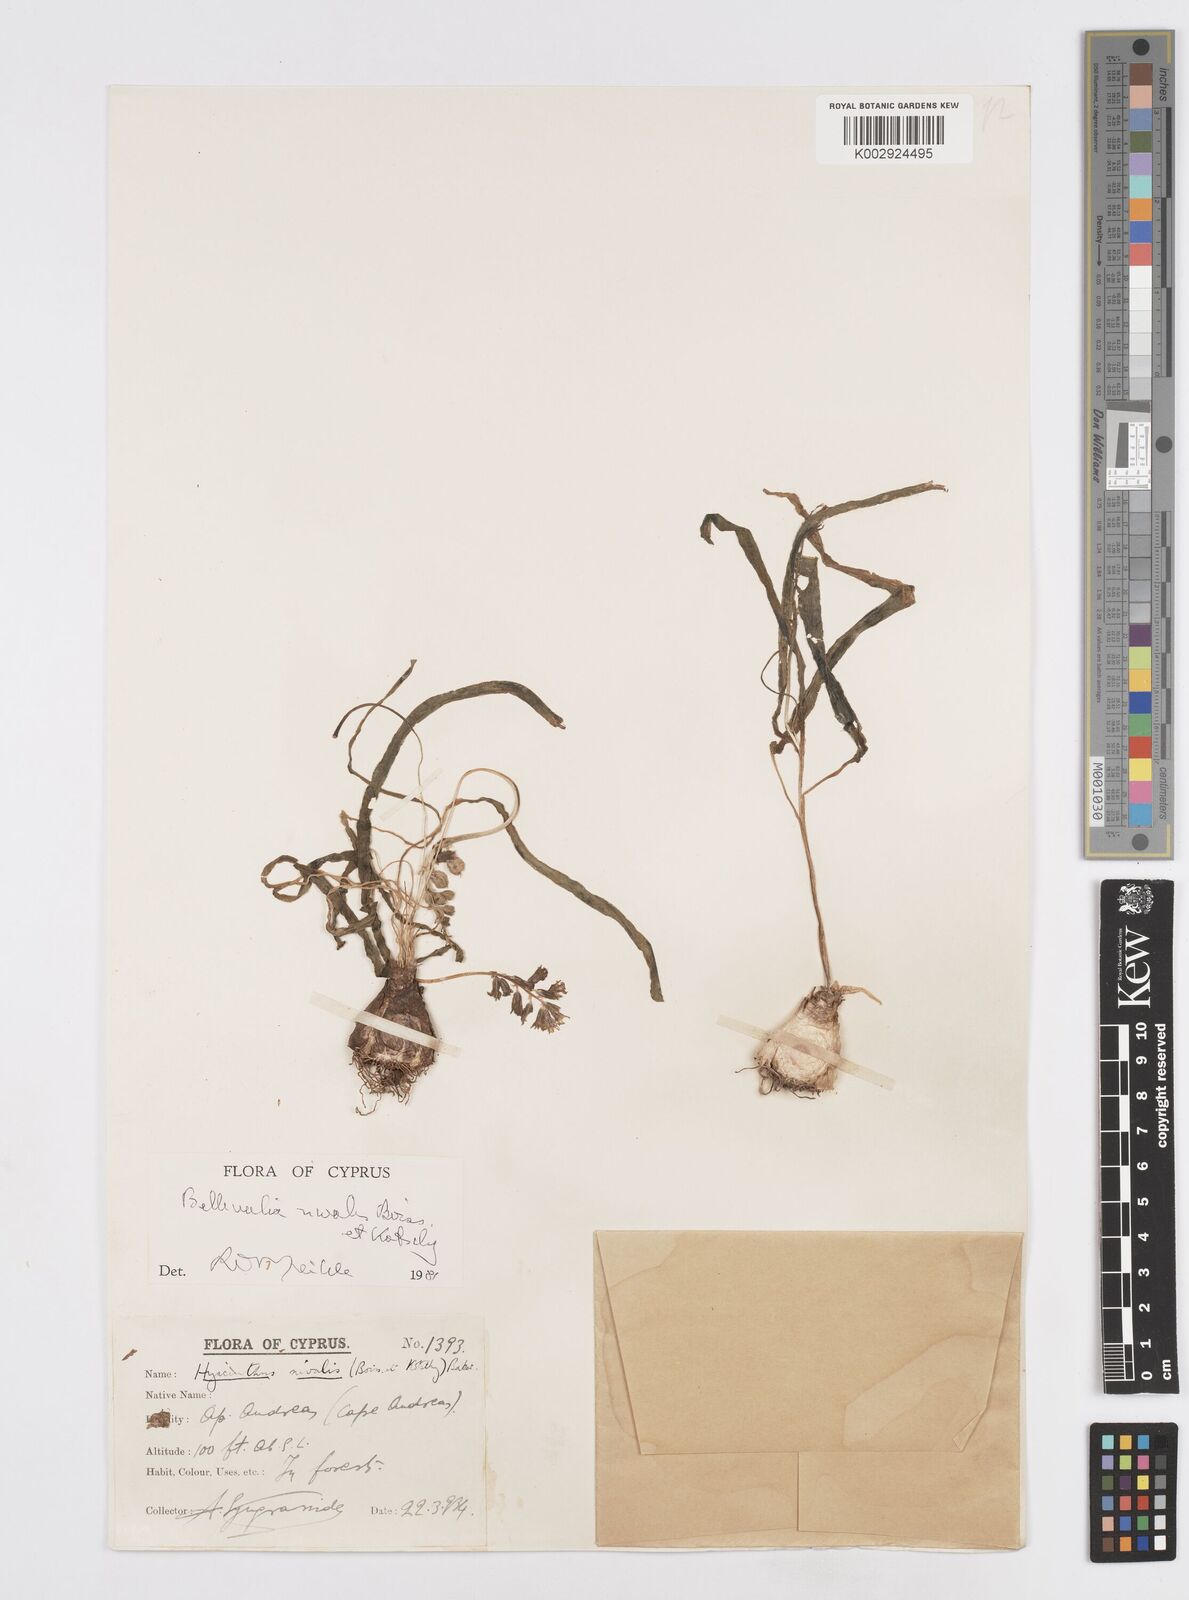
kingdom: Plantae
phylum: Tracheophyta
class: Liliopsida
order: Asparagales
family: Asparagaceae
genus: Bellevalia
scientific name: Bellevalia nivalis
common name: Snow bellevalia
